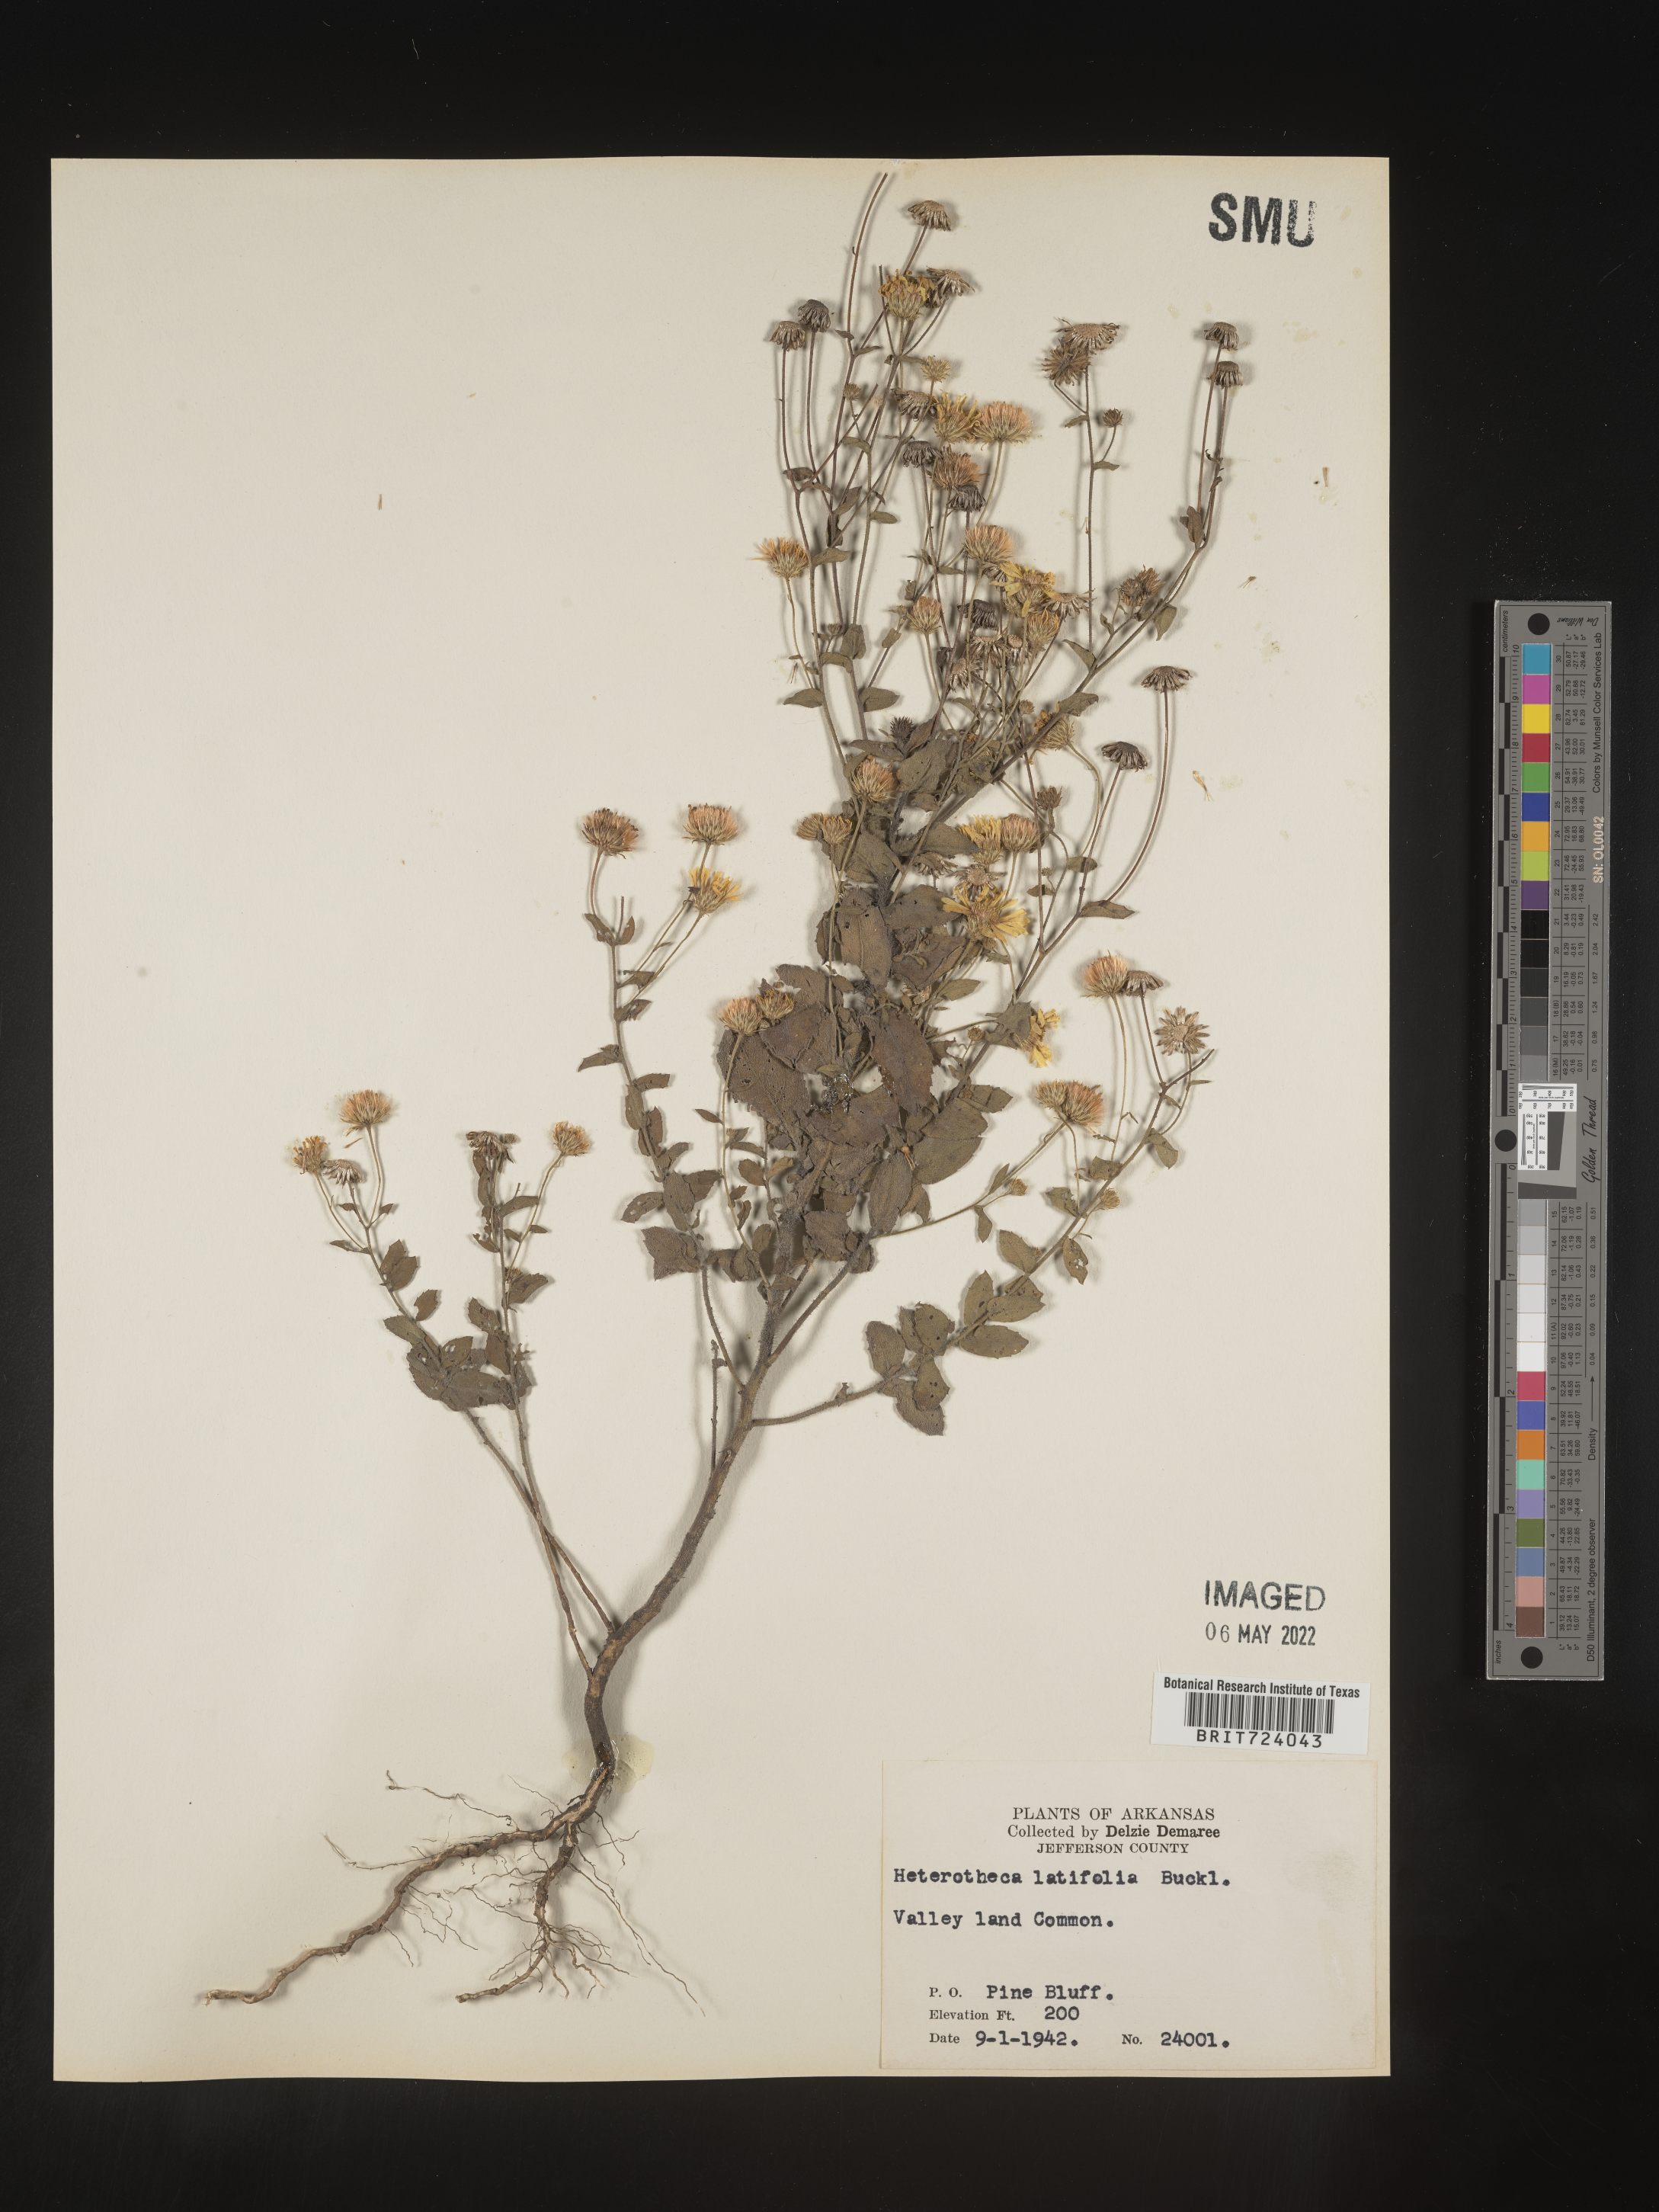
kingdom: Plantae
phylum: Tracheophyta
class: Magnoliopsida
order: Asterales
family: Asteraceae
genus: Heterotheca
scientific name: Heterotheca subaxillaris
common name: Camphorweed
